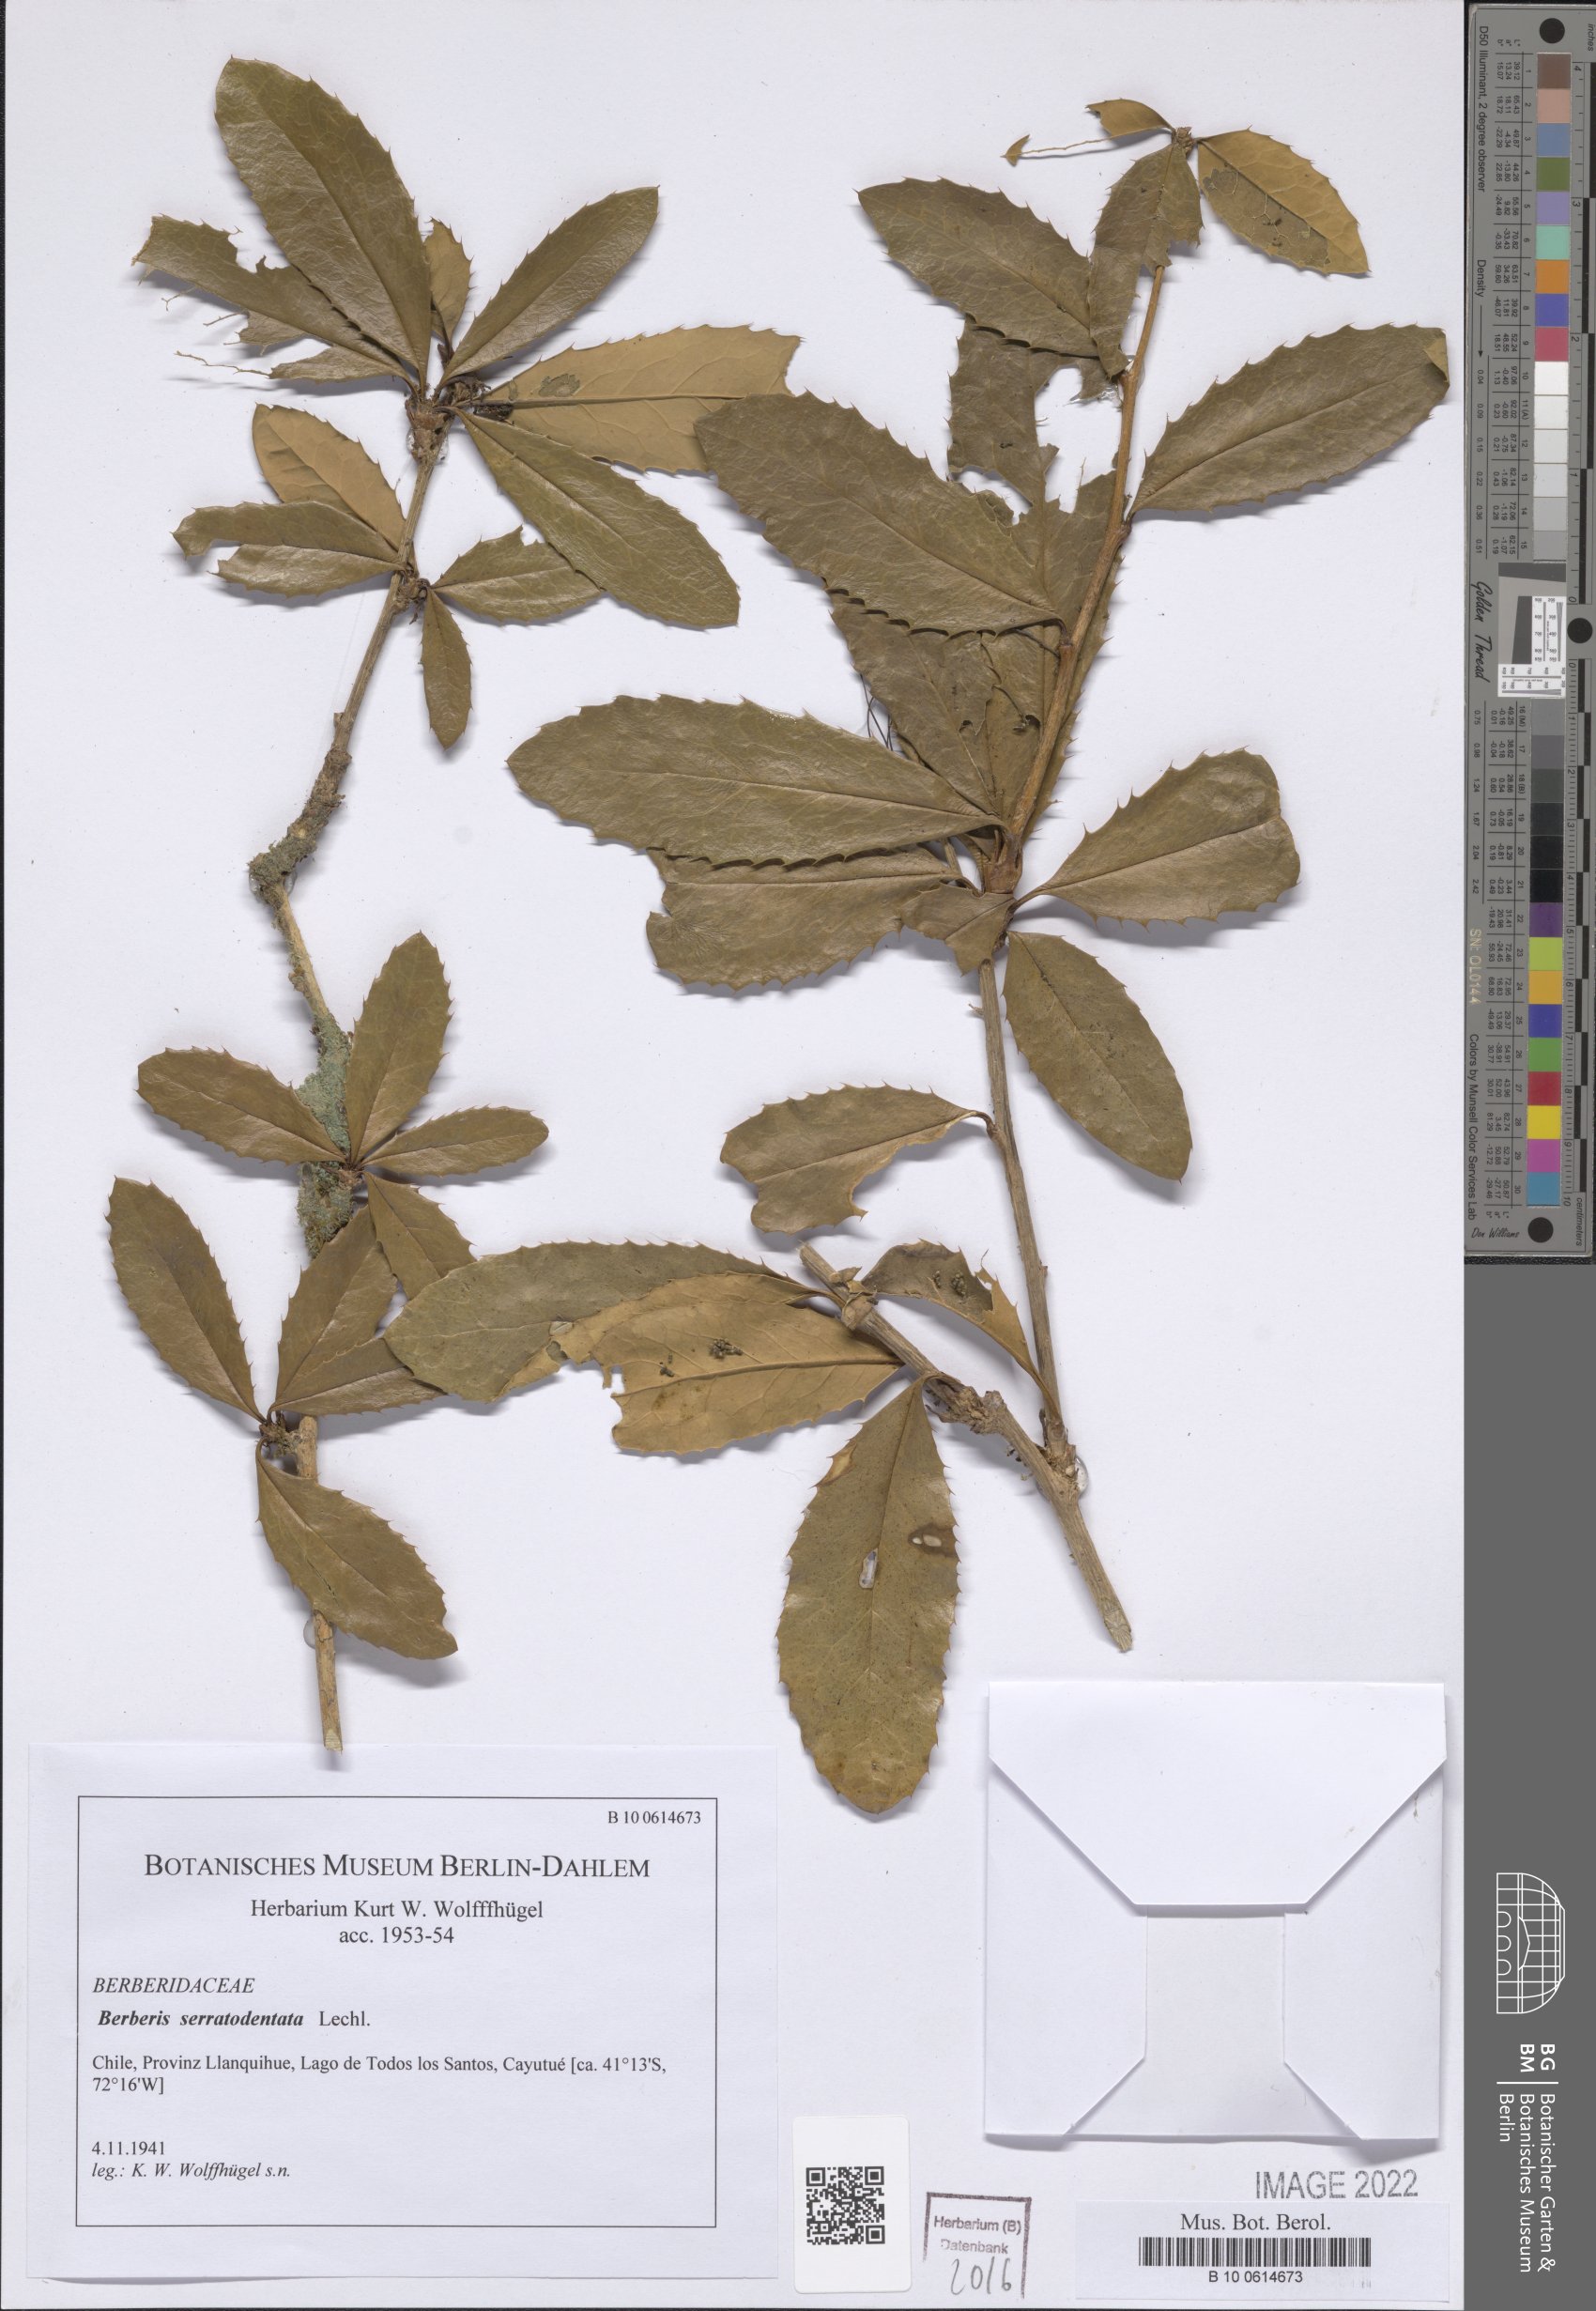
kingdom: Plantae
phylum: Tracheophyta
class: Magnoliopsida
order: Ranunculales
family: Berberidaceae
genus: Berberis
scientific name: Berberis serratodentata
